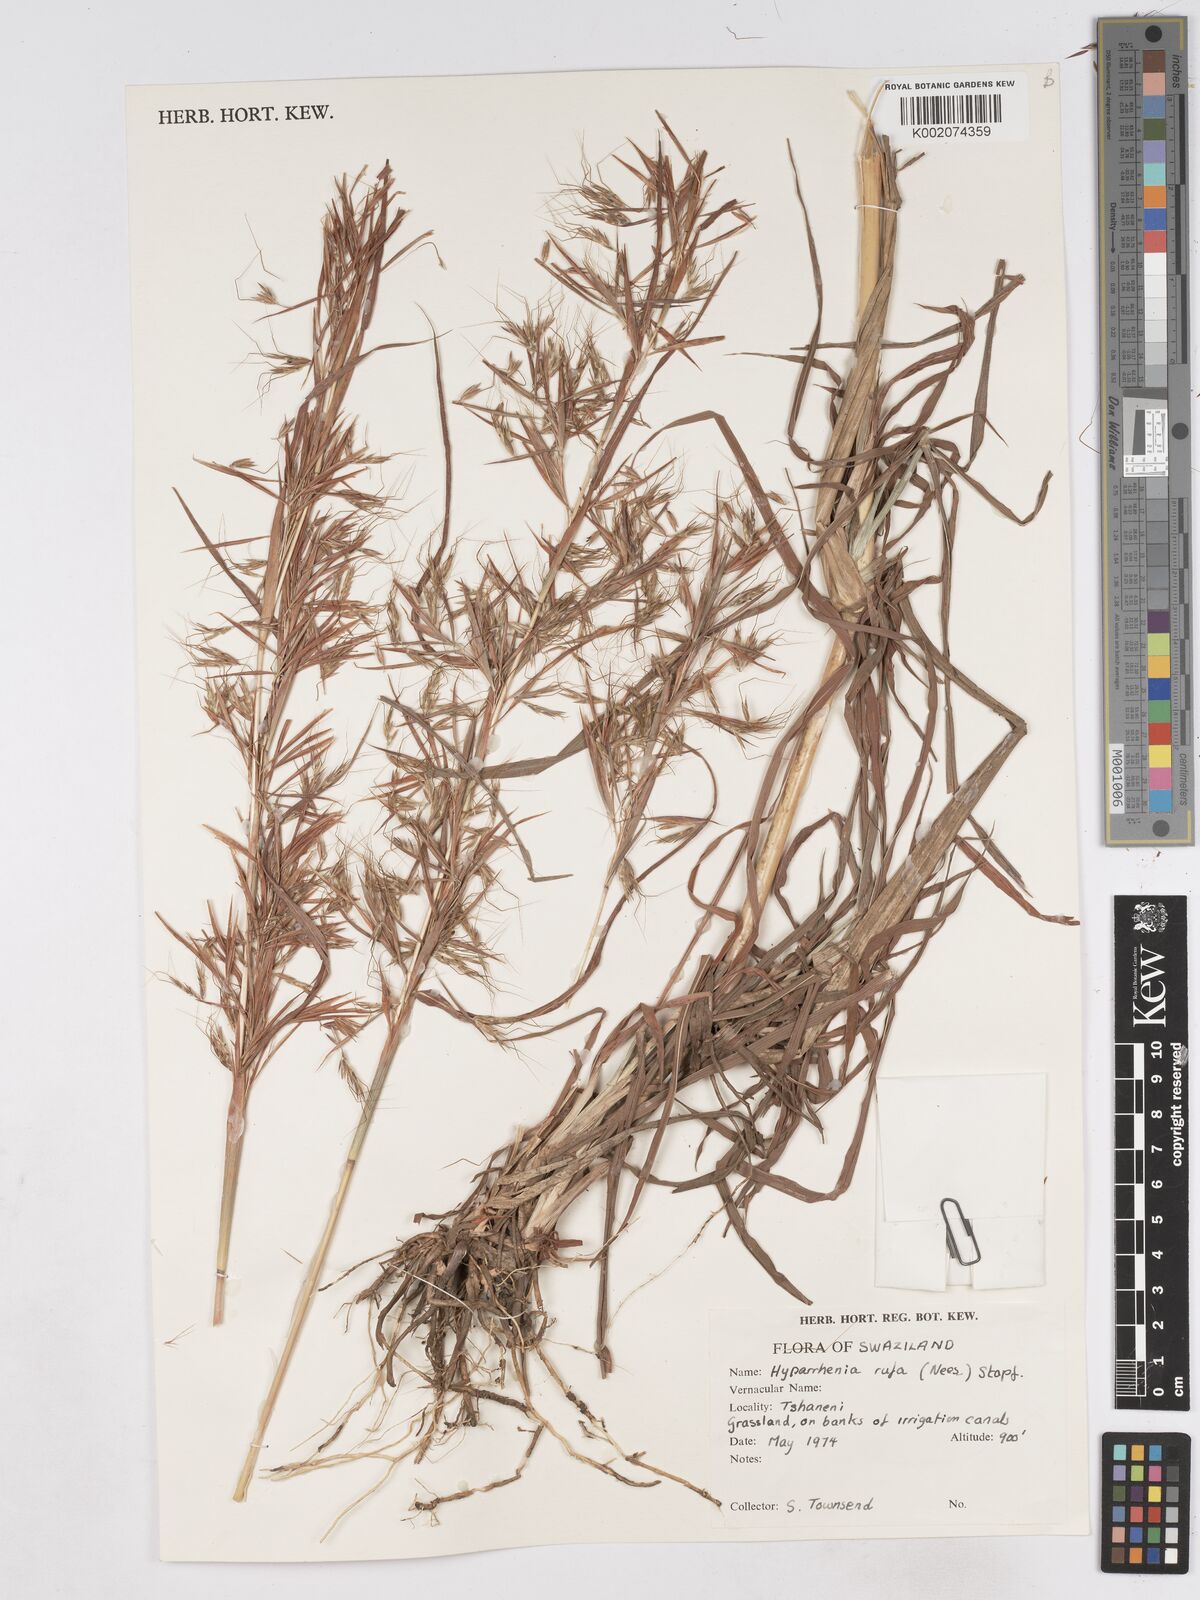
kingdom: Plantae
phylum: Tracheophyta
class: Liliopsida
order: Poales
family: Poaceae
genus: Hyparrhenia
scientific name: Hyparrhenia rufa
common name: Jaraguagrass
